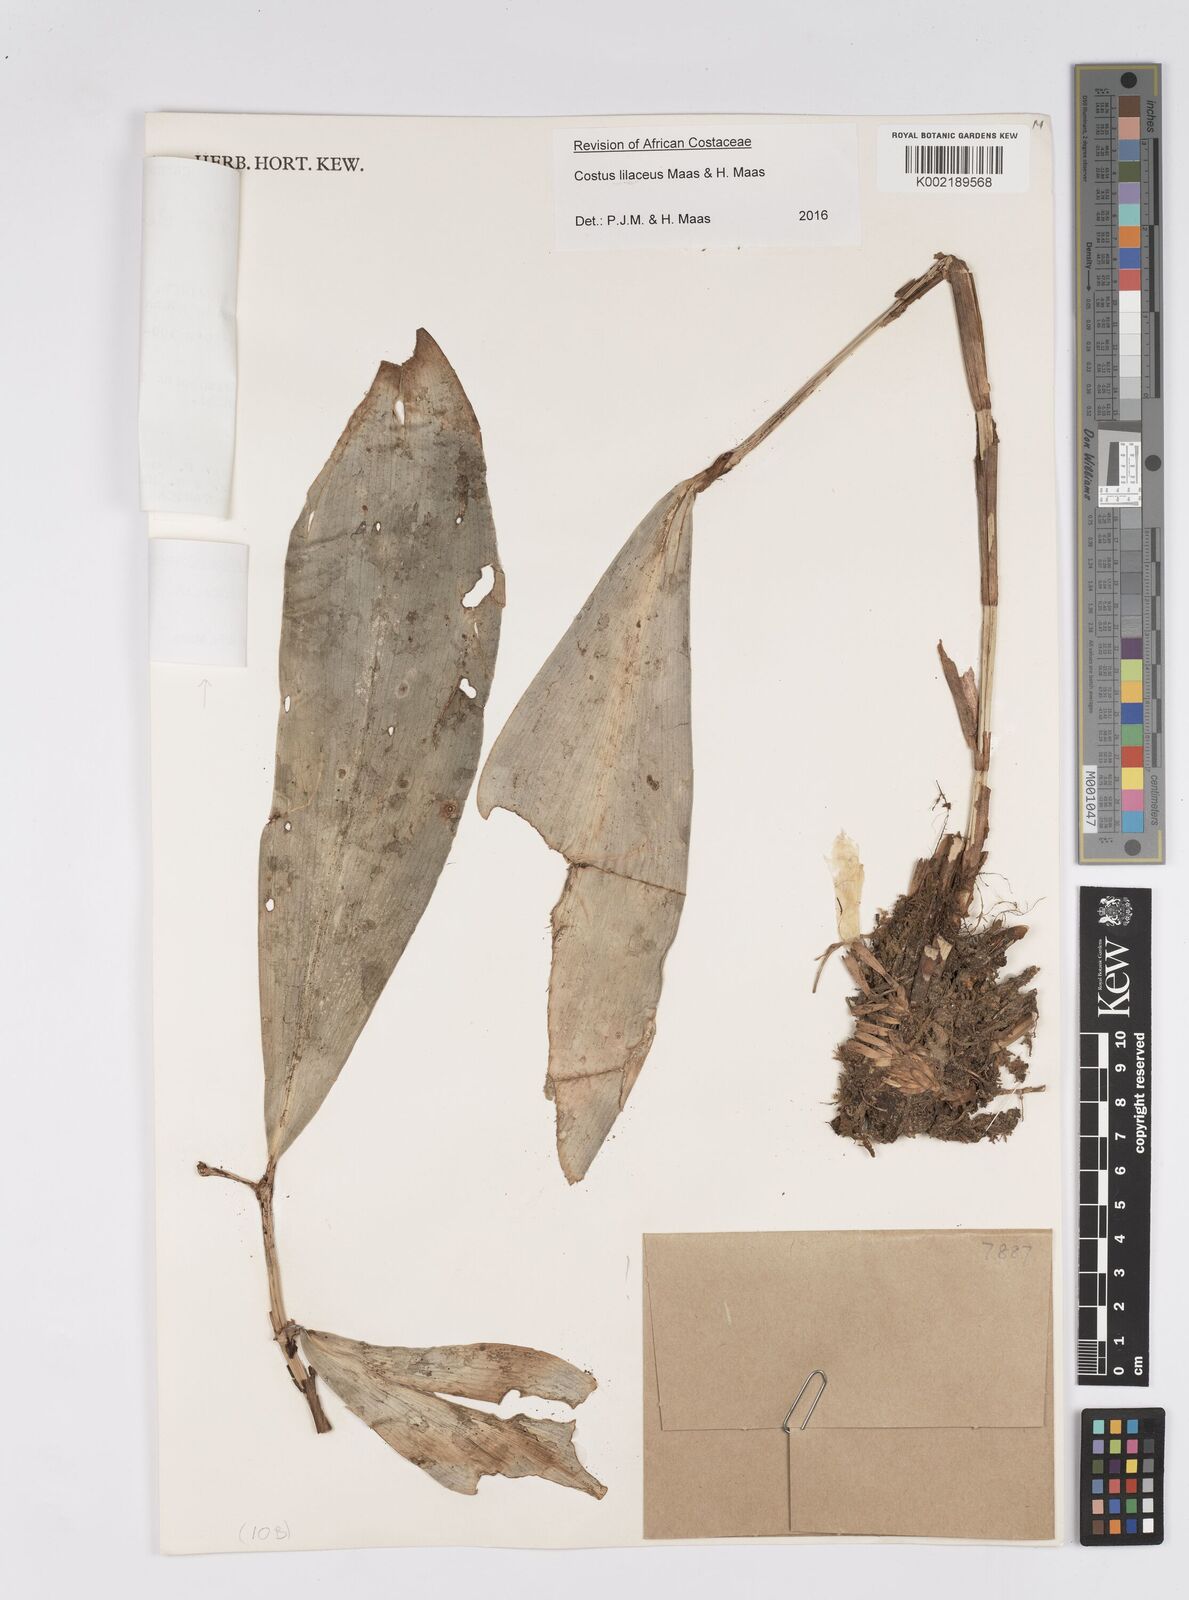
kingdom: Plantae
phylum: Tracheophyta
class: Liliopsida
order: Zingiberales
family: Costaceae
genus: Costus
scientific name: Costus lilaceus
